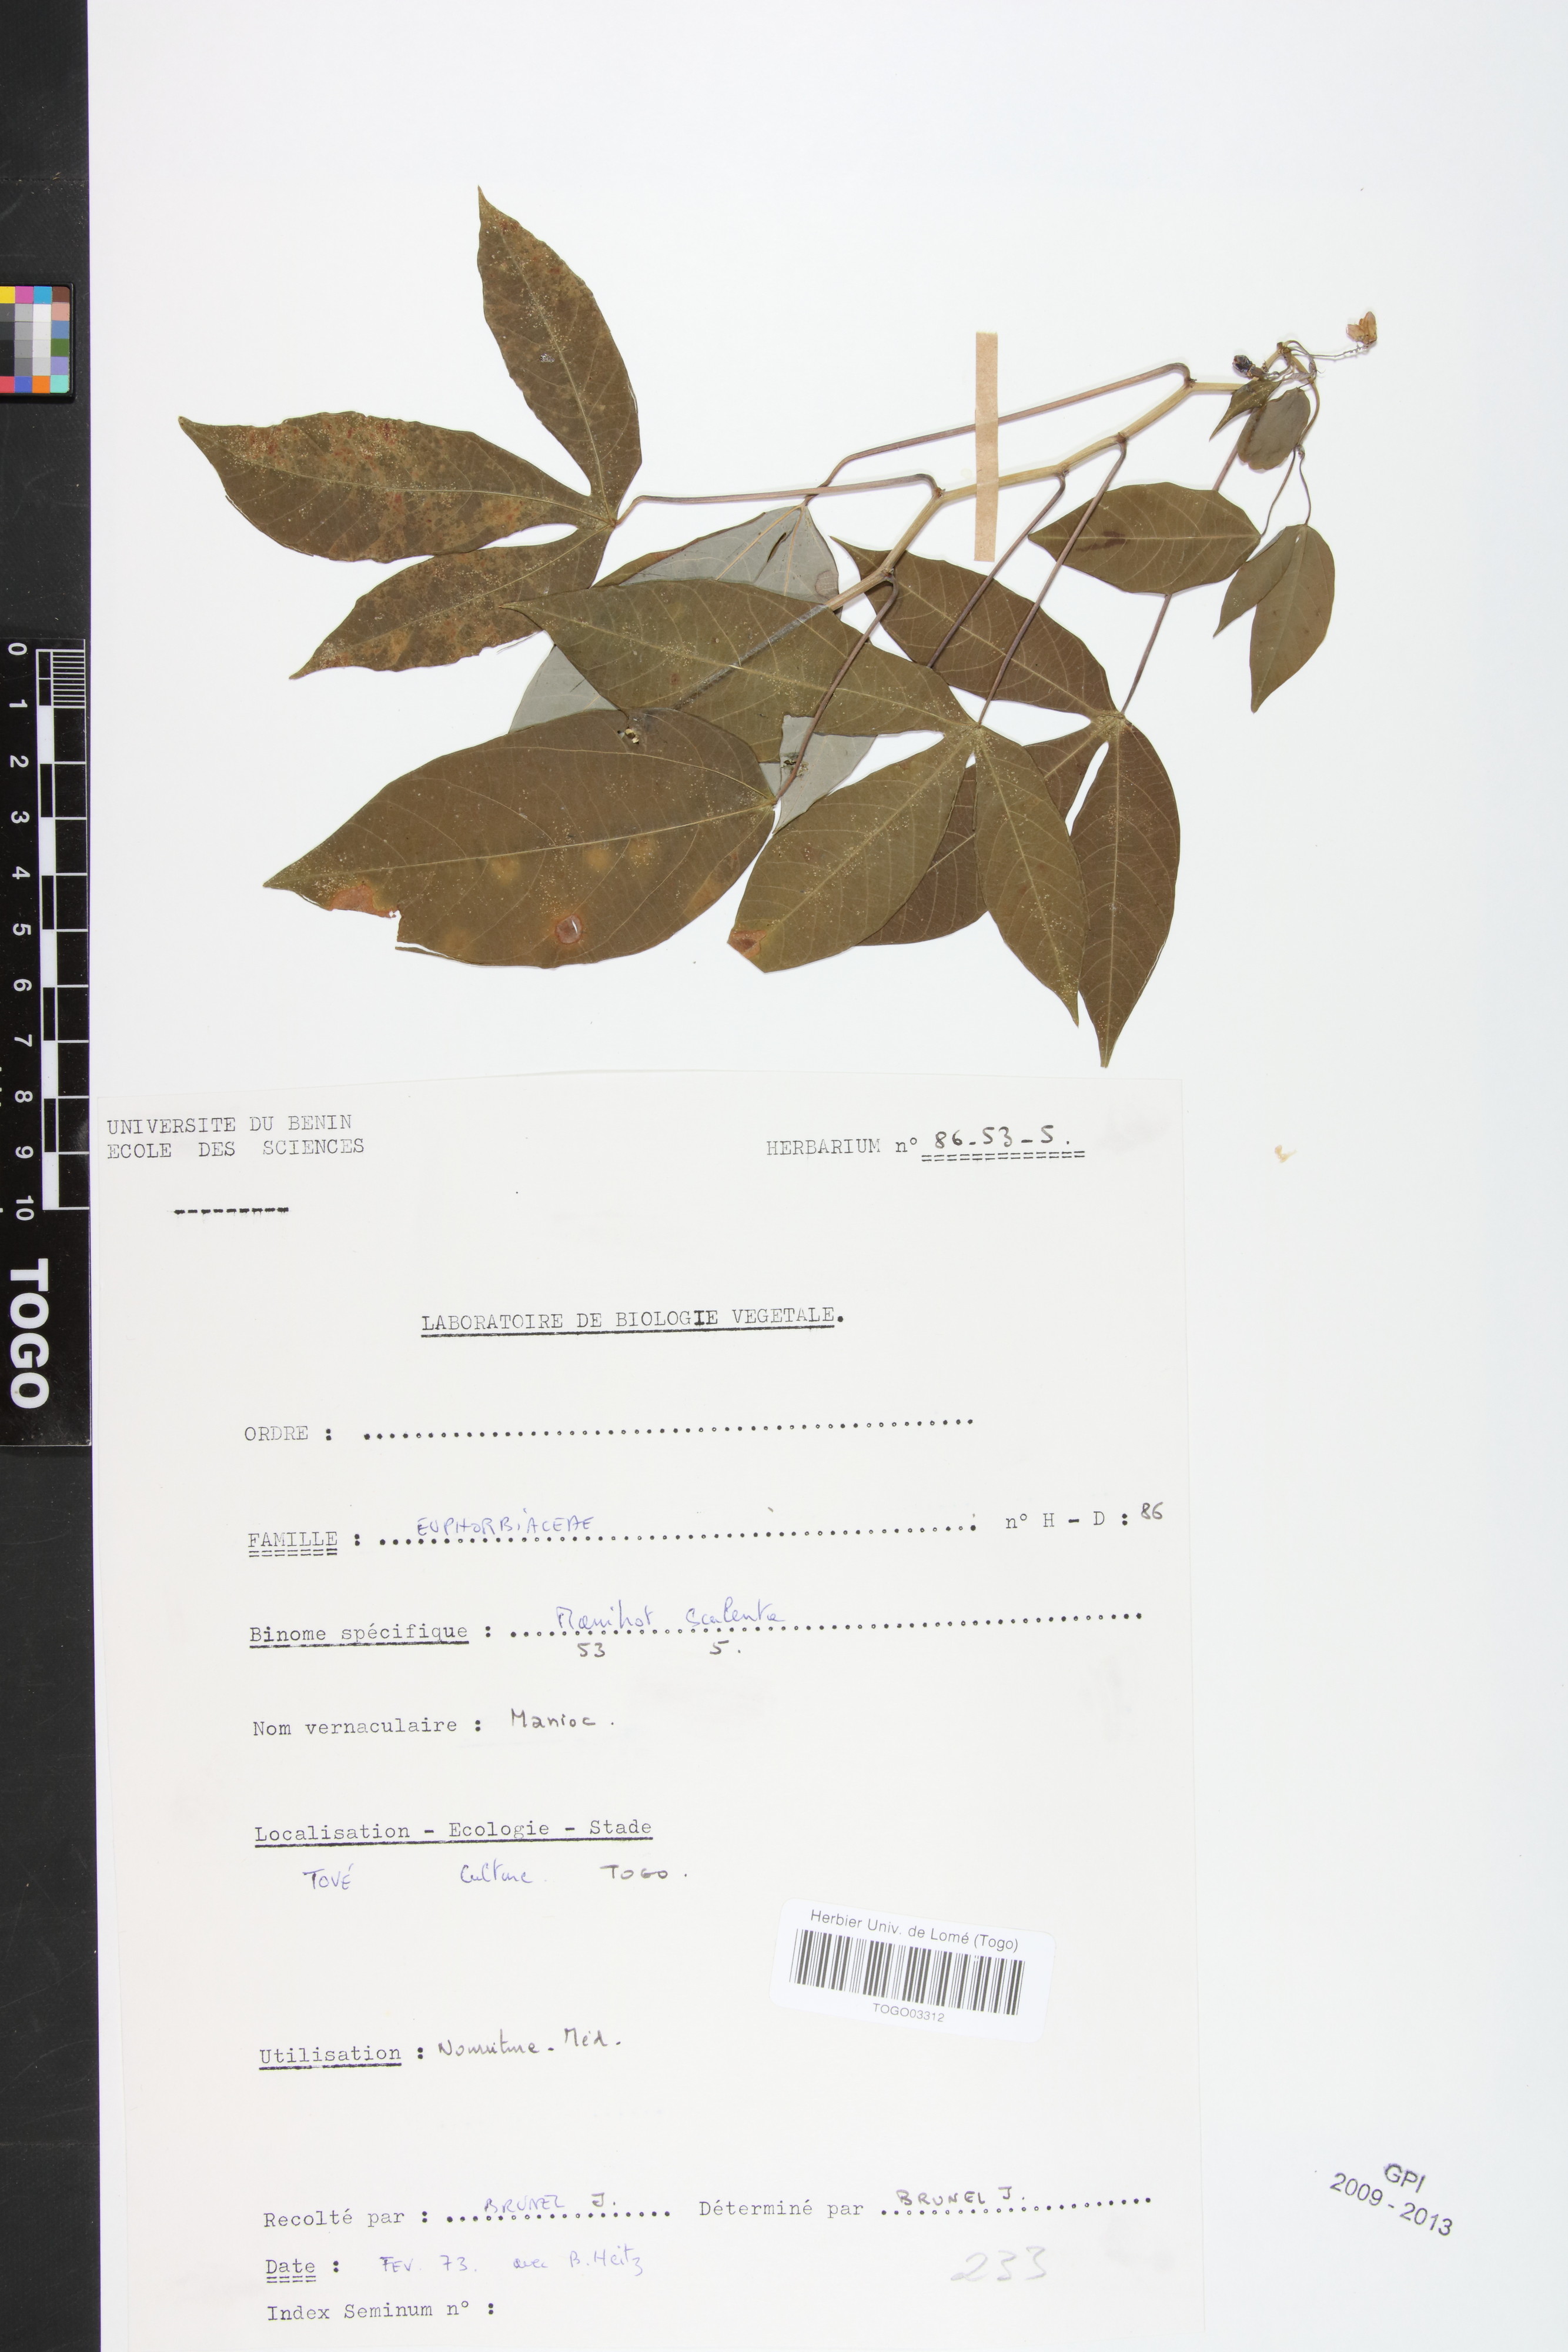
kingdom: Plantae
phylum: Tracheophyta
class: Magnoliopsida
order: Malpighiales
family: Euphorbiaceae
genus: Manihot
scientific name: Manihot esculenta
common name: Cassava
